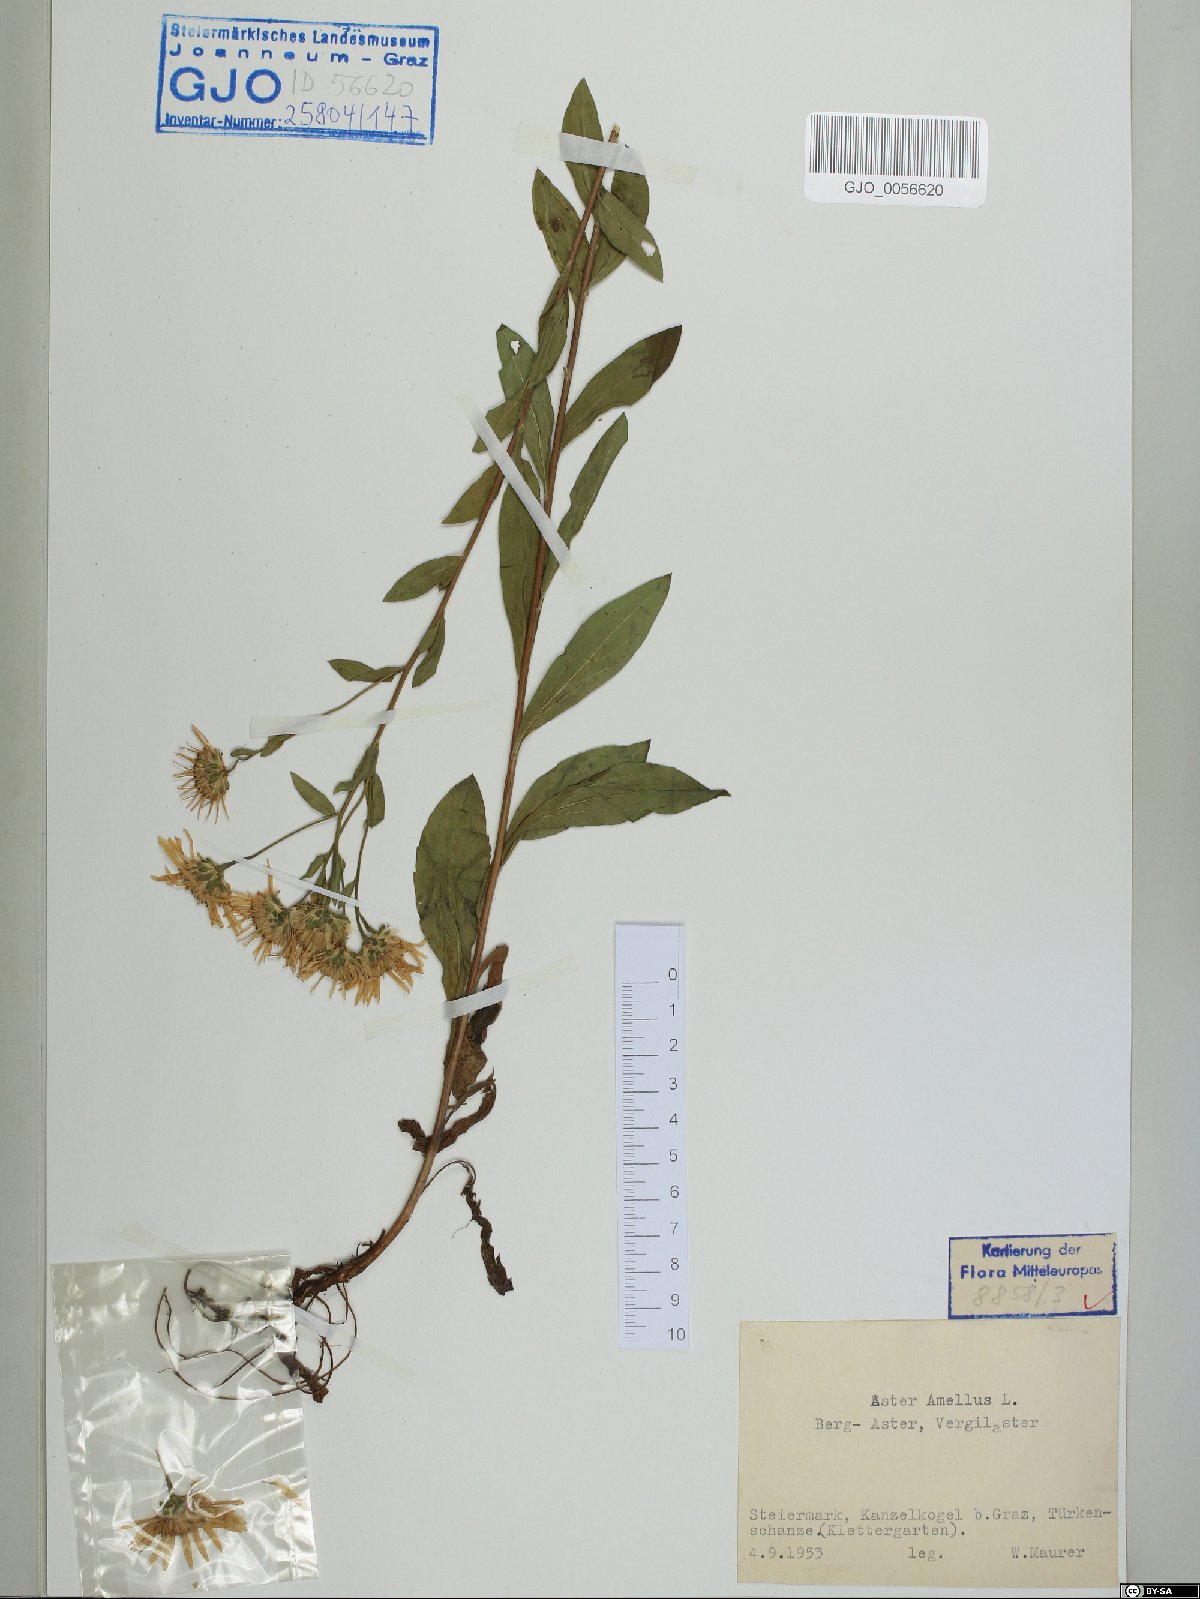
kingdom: Plantae
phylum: Tracheophyta
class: Magnoliopsida
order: Asterales
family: Asteraceae
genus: Aster
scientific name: Aster amellus
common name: European michaelmas daisy
